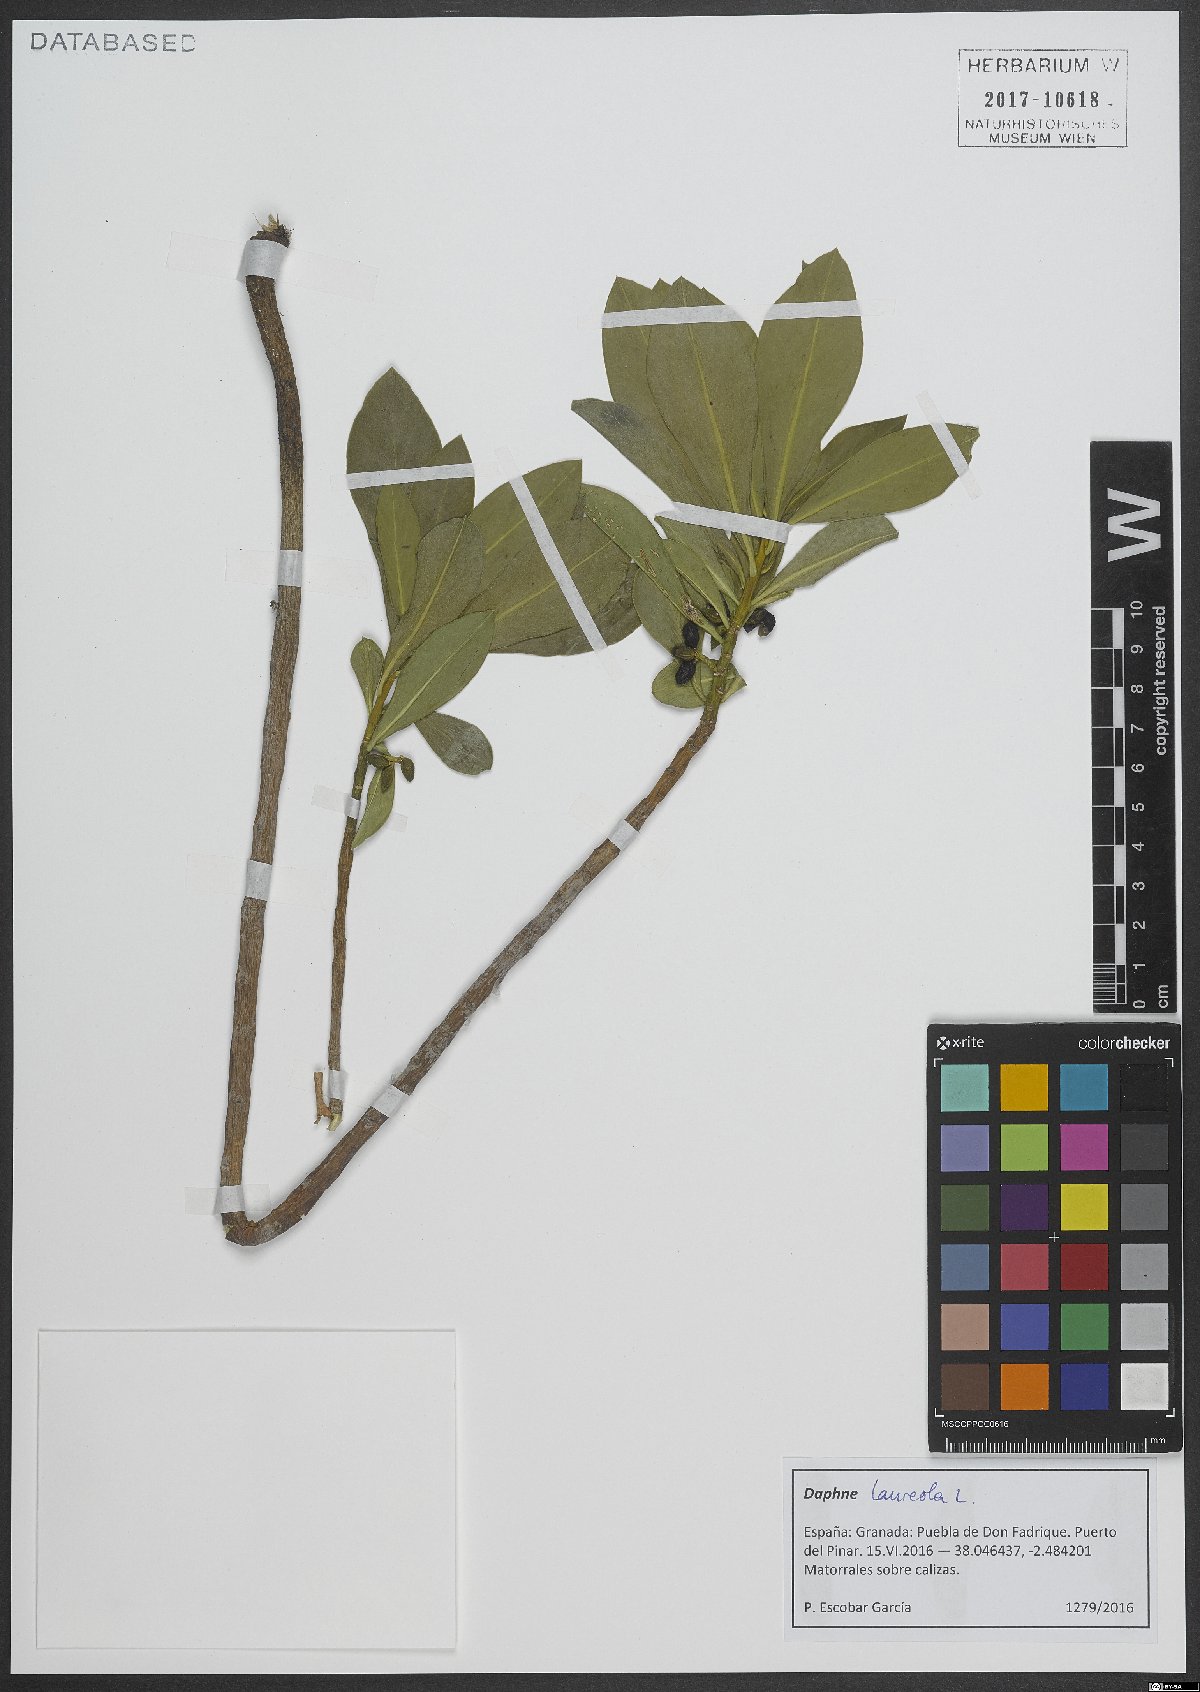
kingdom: Plantae
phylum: Tracheophyta
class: Magnoliopsida
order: Malvales
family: Thymelaeaceae
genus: Daphne
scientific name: Daphne laureola
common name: Spurge-laurel
